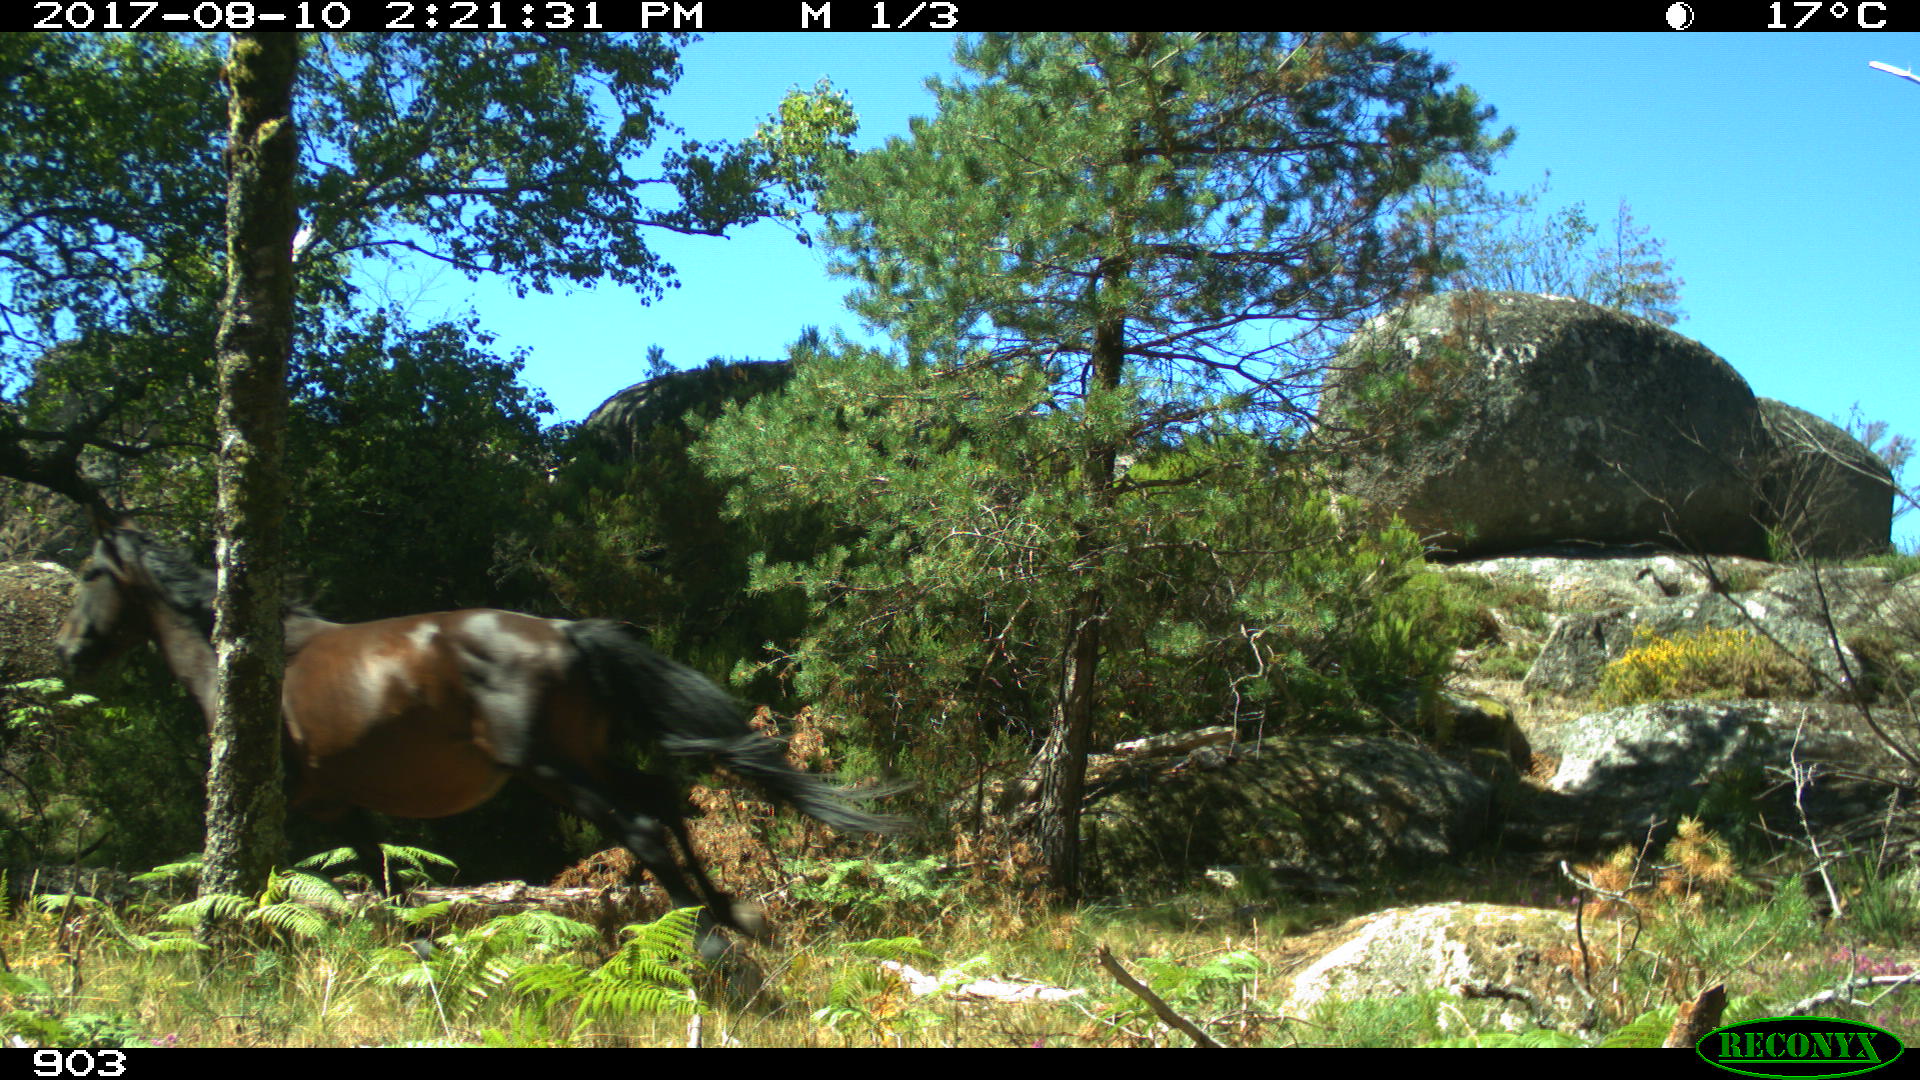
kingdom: Animalia
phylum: Chordata
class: Mammalia
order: Perissodactyla
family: Equidae
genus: Equus
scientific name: Equus caballus
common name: Horse
